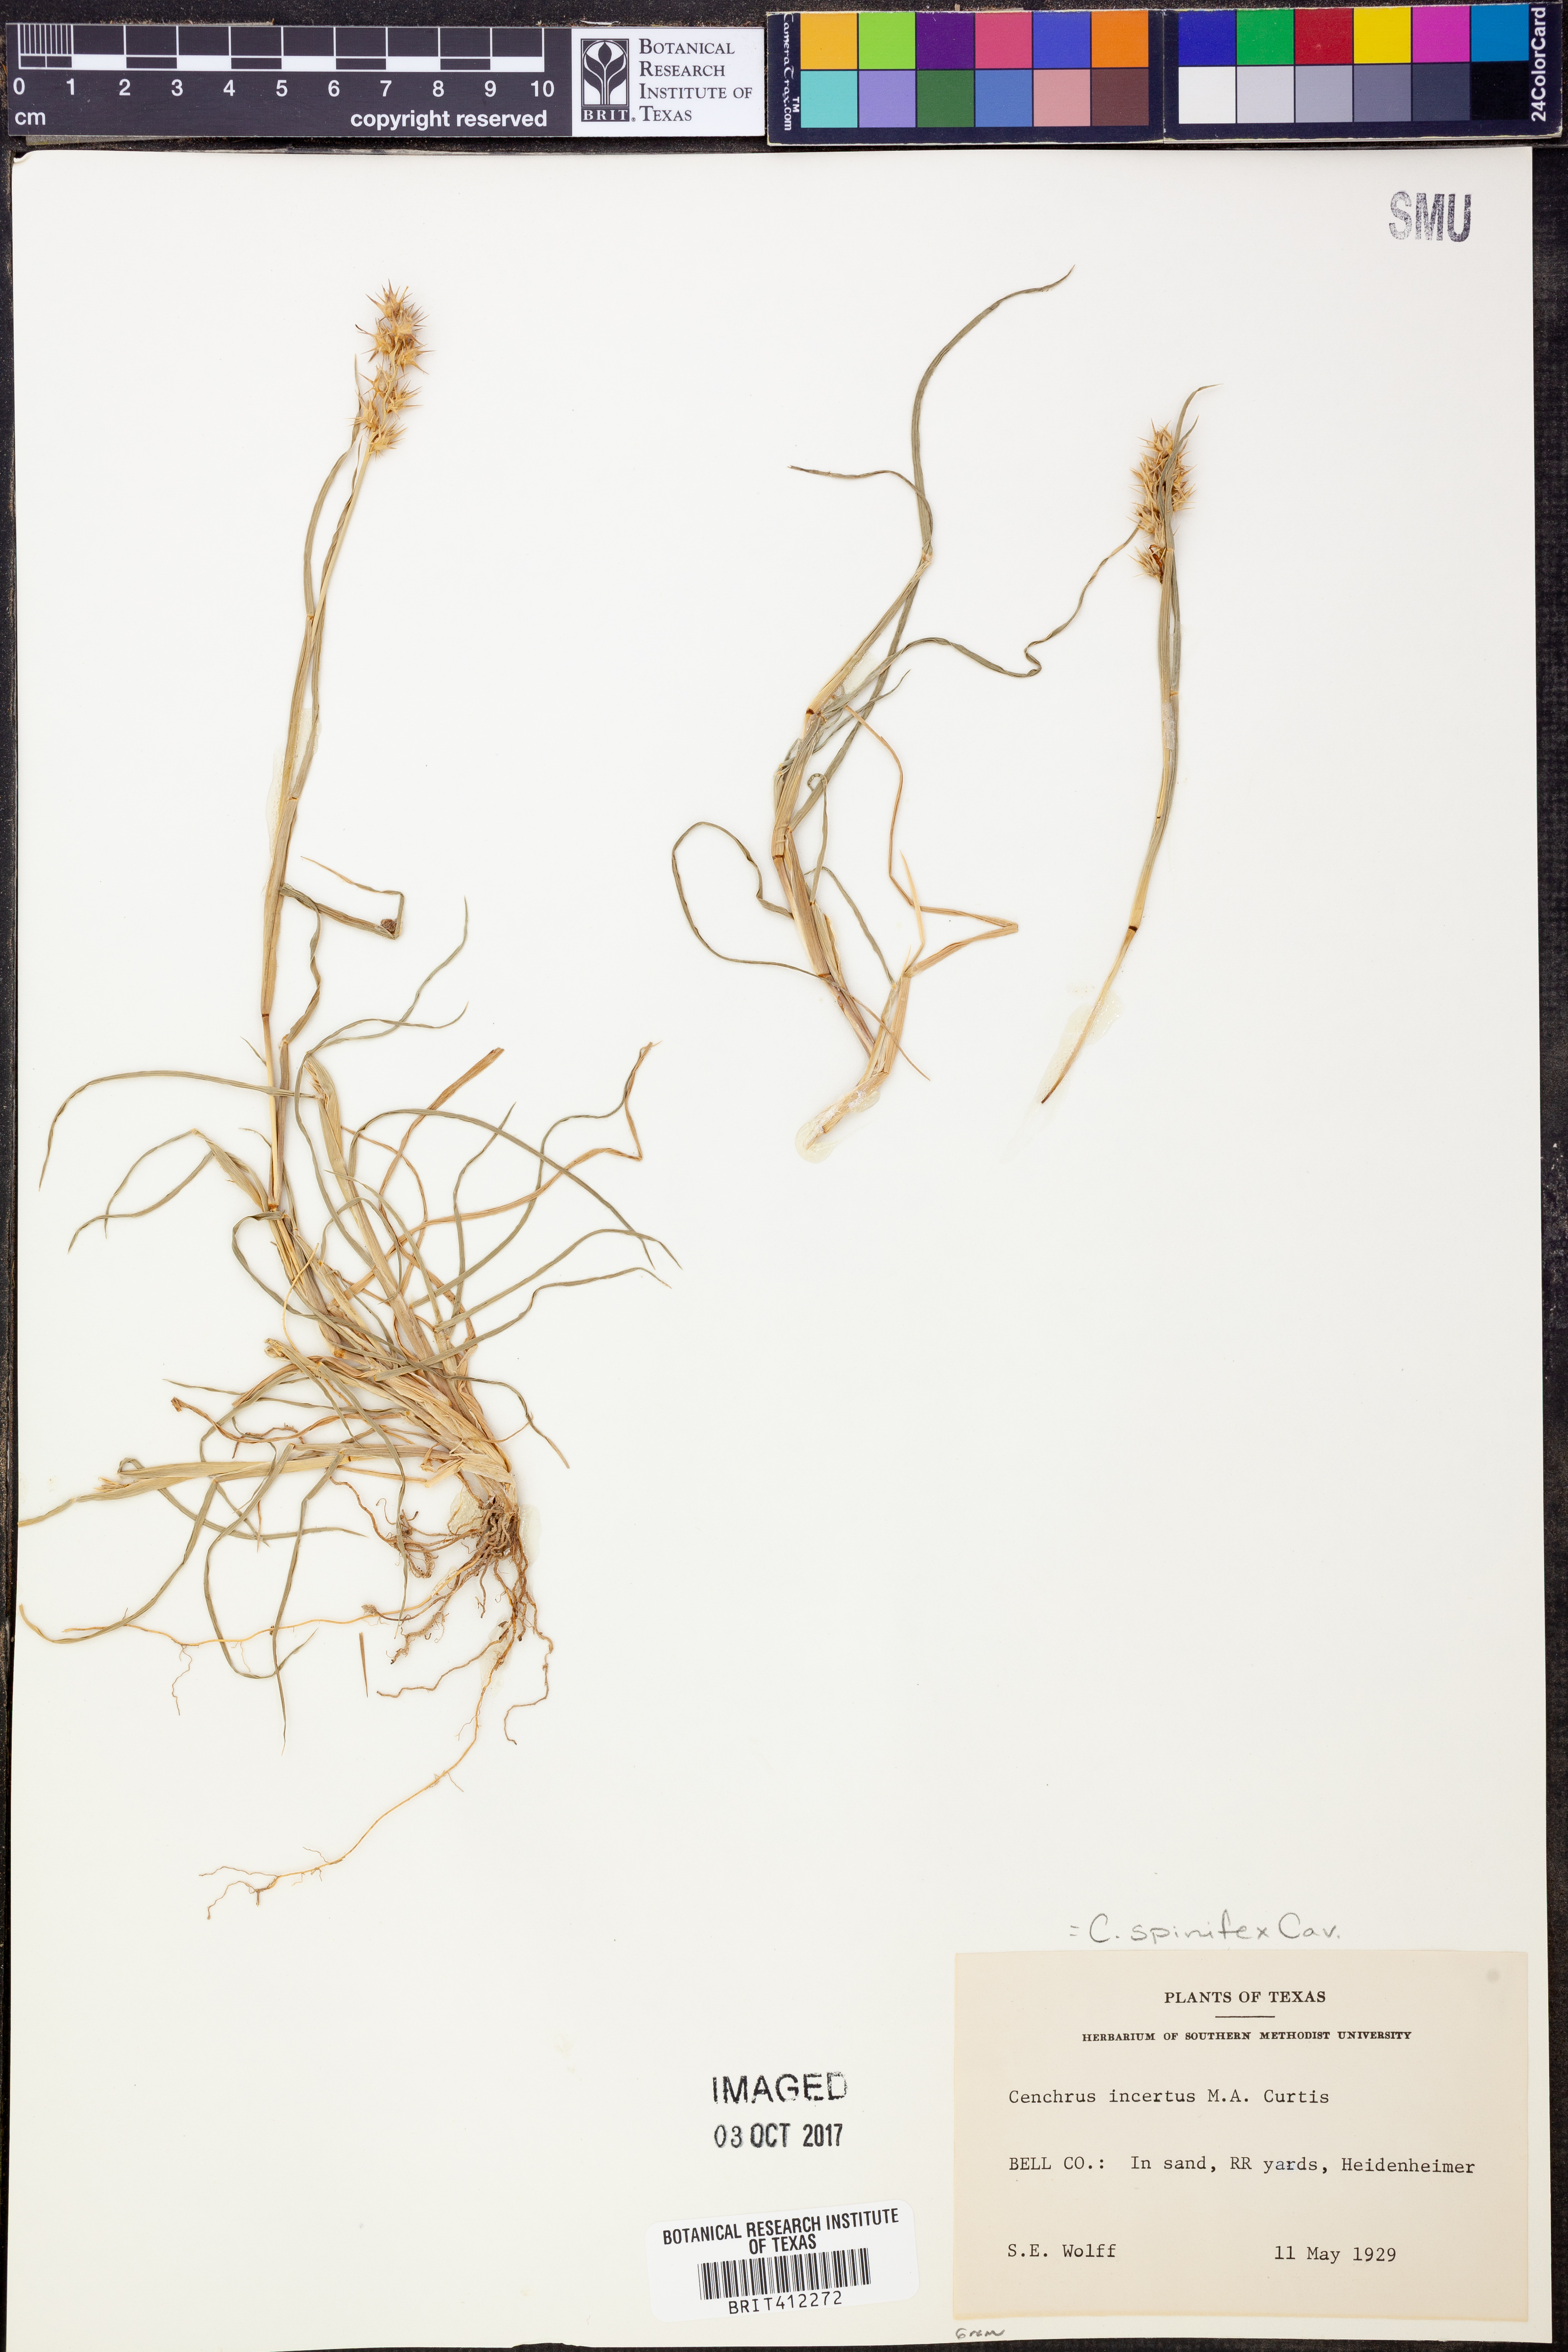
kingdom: Plantae
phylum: Tracheophyta
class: Liliopsida
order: Poales
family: Poaceae
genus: Cenchrus
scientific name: Cenchrus spinifex
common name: Coast sandbur
